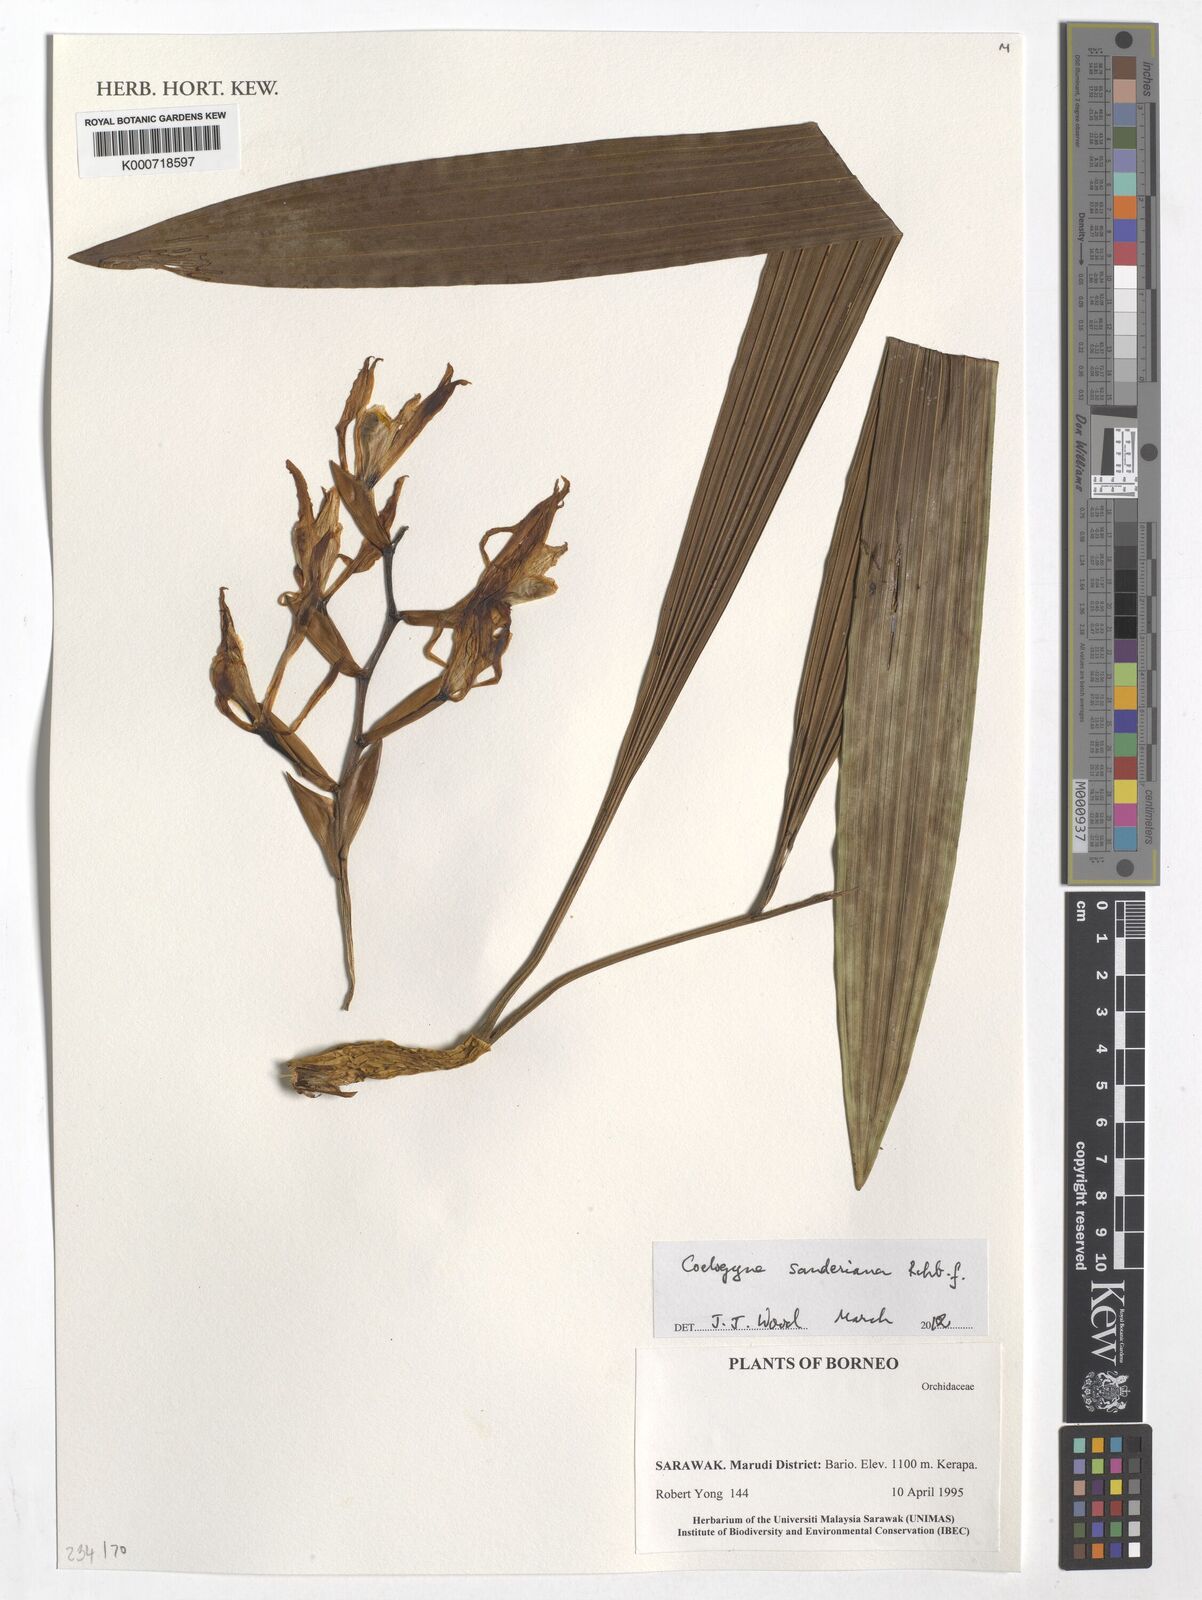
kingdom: Plantae
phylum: Tracheophyta
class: Liliopsida
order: Asparagales
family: Orchidaceae
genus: Coelogyne
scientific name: Coelogyne sanderiana
